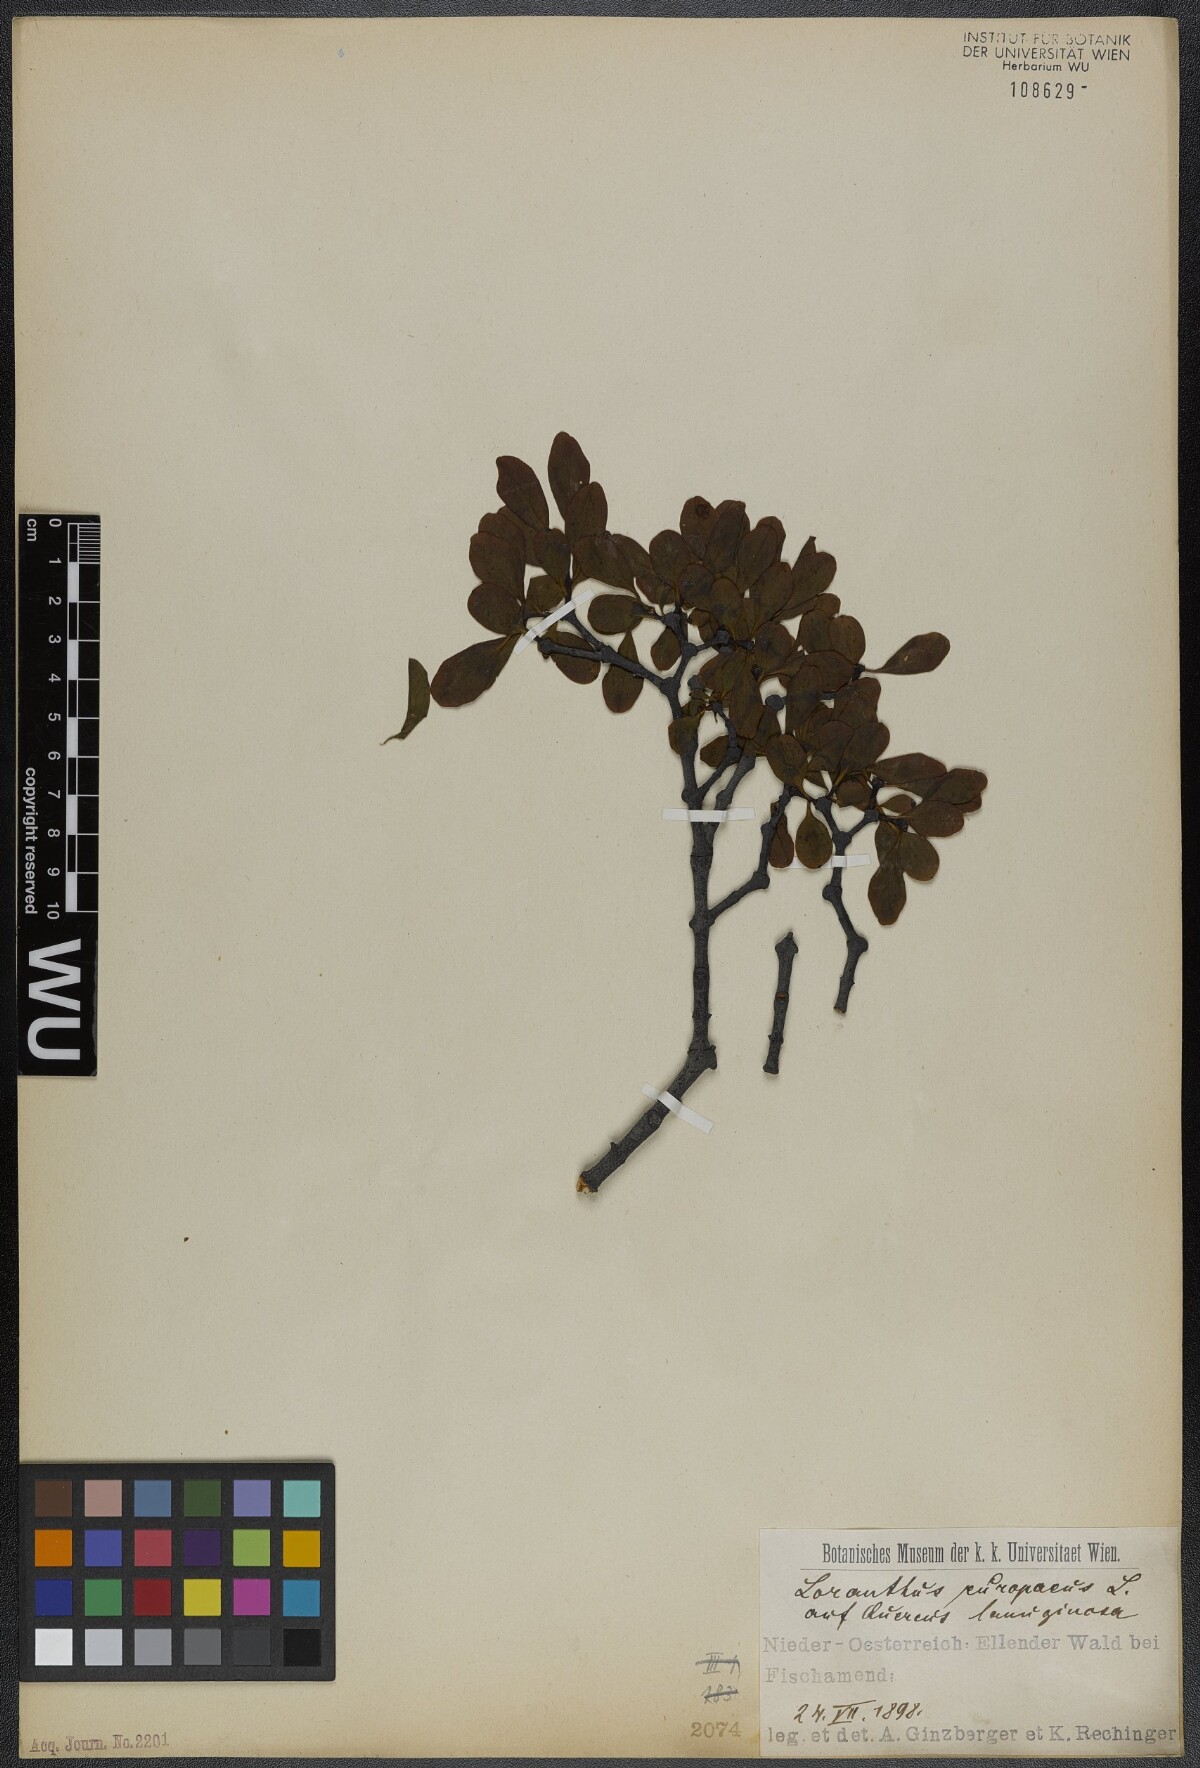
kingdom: Plantae
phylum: Tracheophyta
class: Magnoliopsida
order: Santalales
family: Loranthaceae
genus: Loranthus
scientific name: Loranthus europaeus
